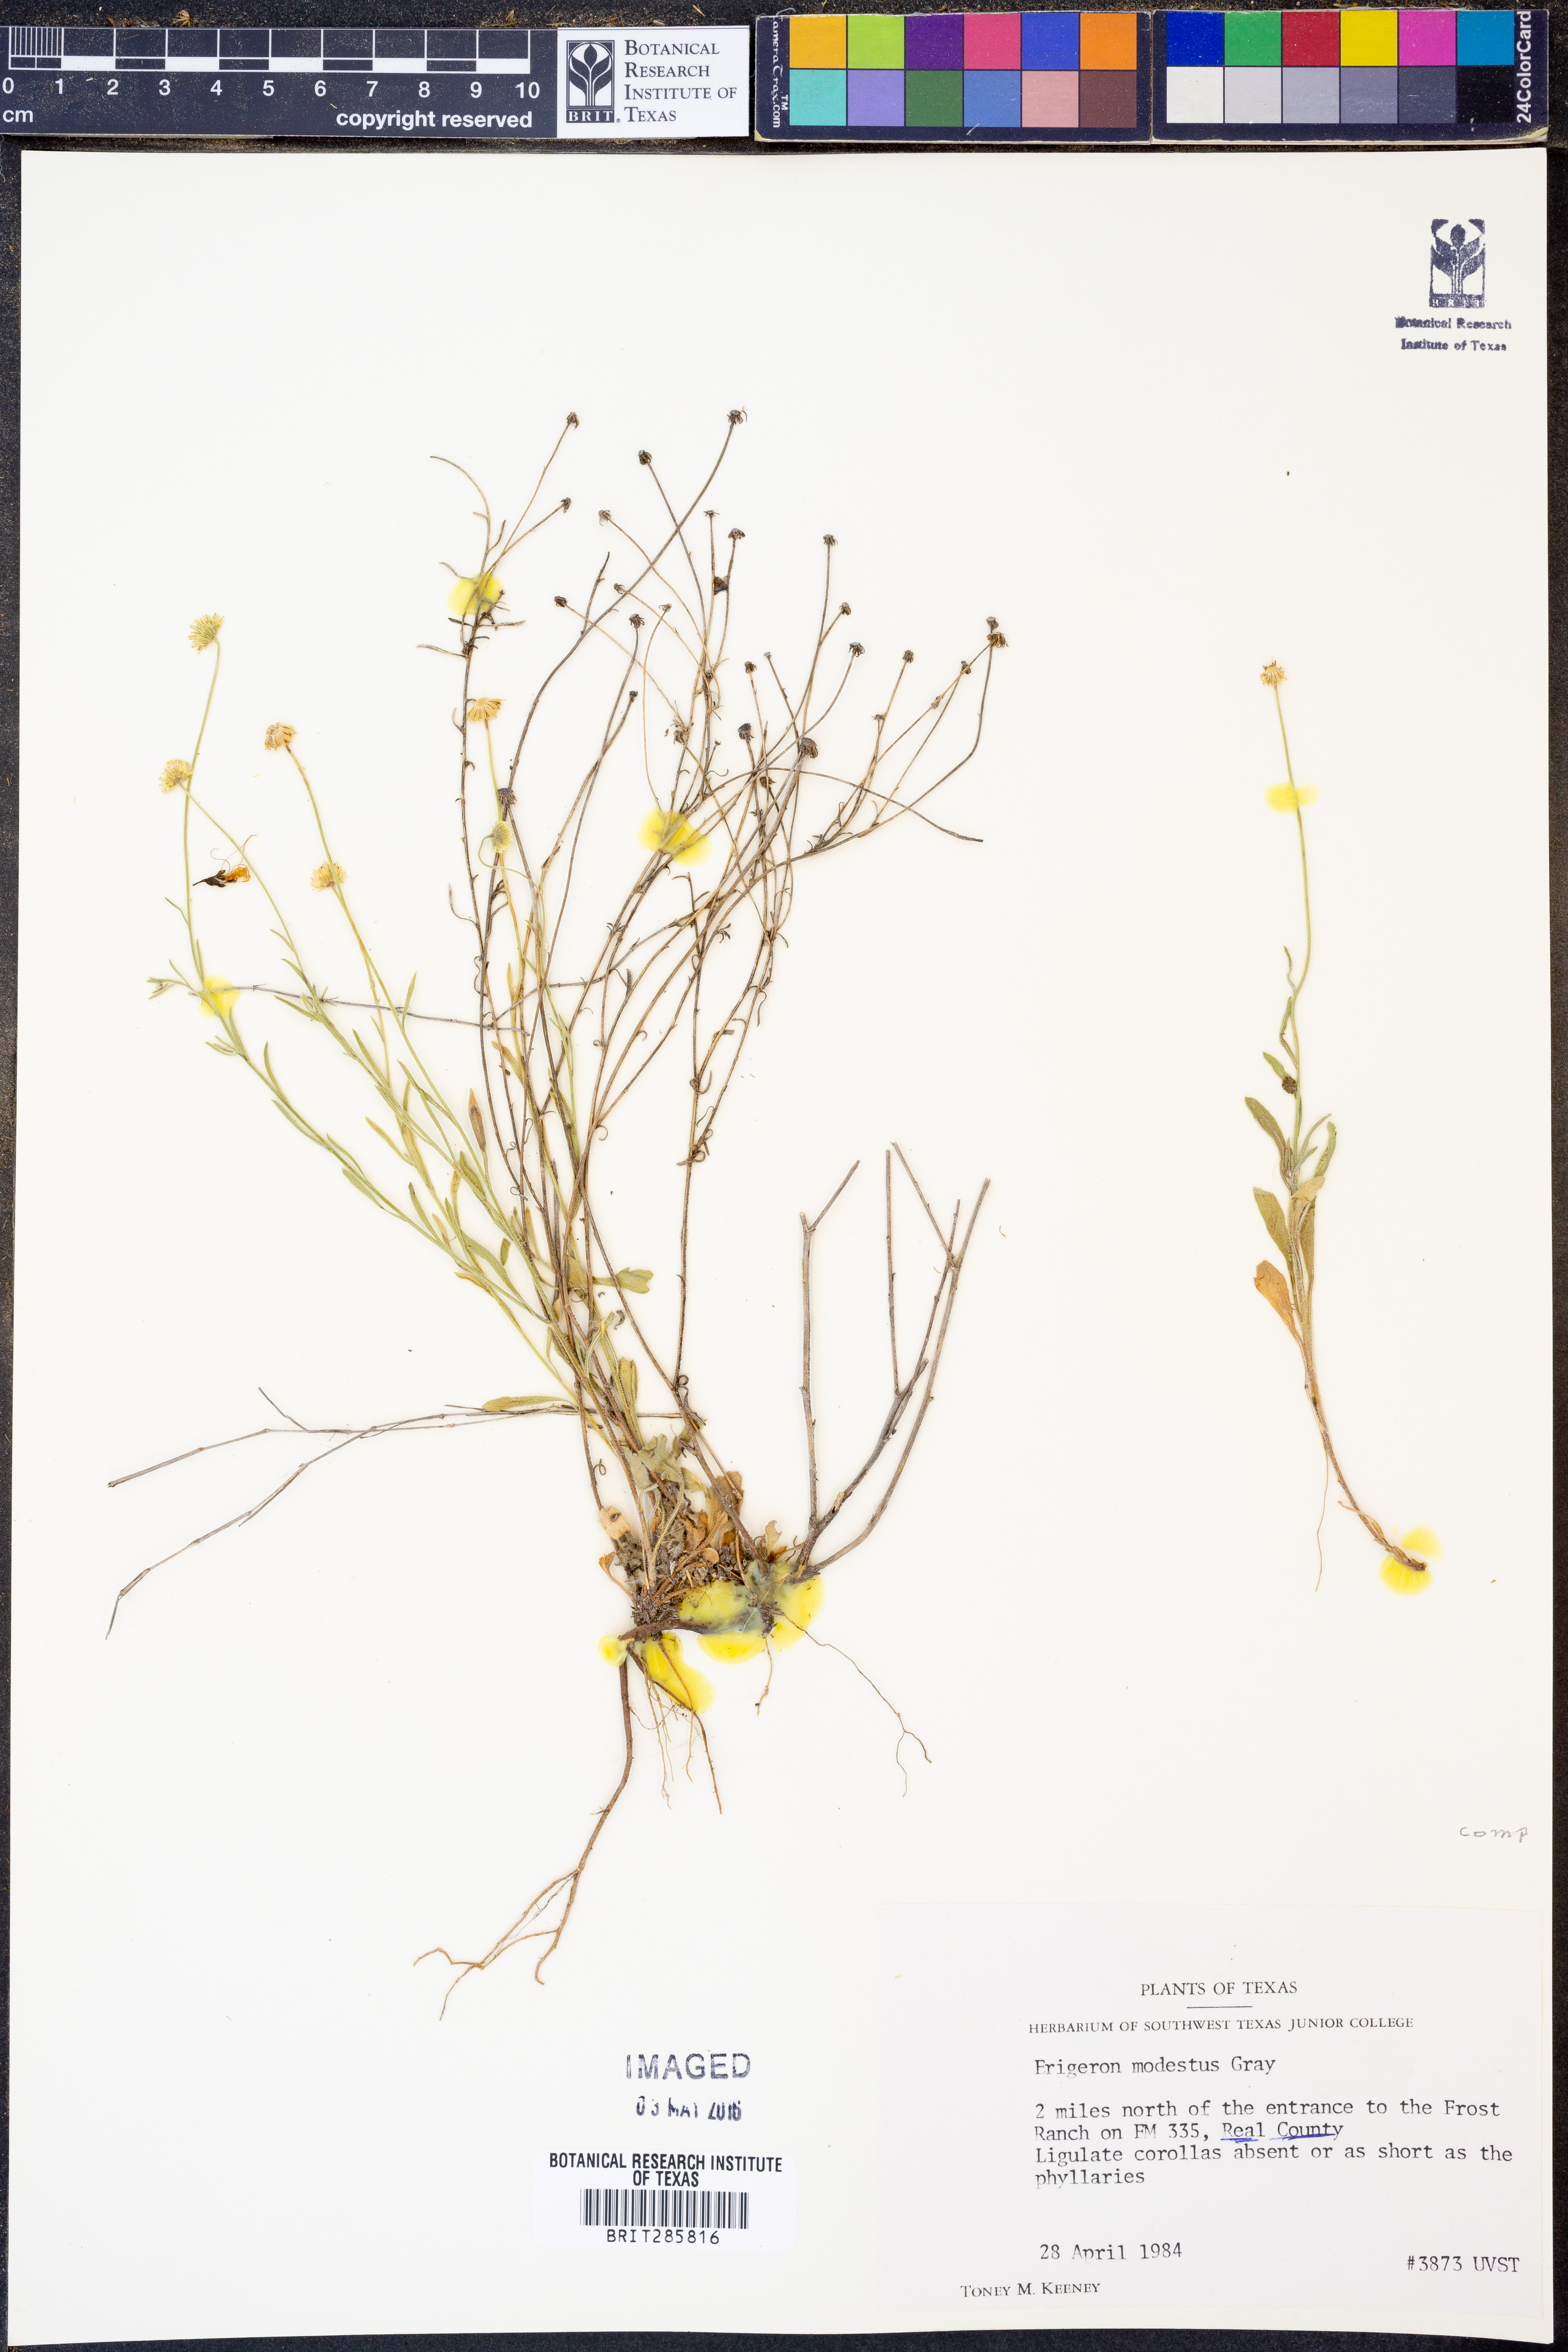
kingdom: Plantae
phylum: Tracheophyta
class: Magnoliopsida
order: Asterales
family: Asteraceae
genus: Erigeron
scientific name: Erigeron modestus
